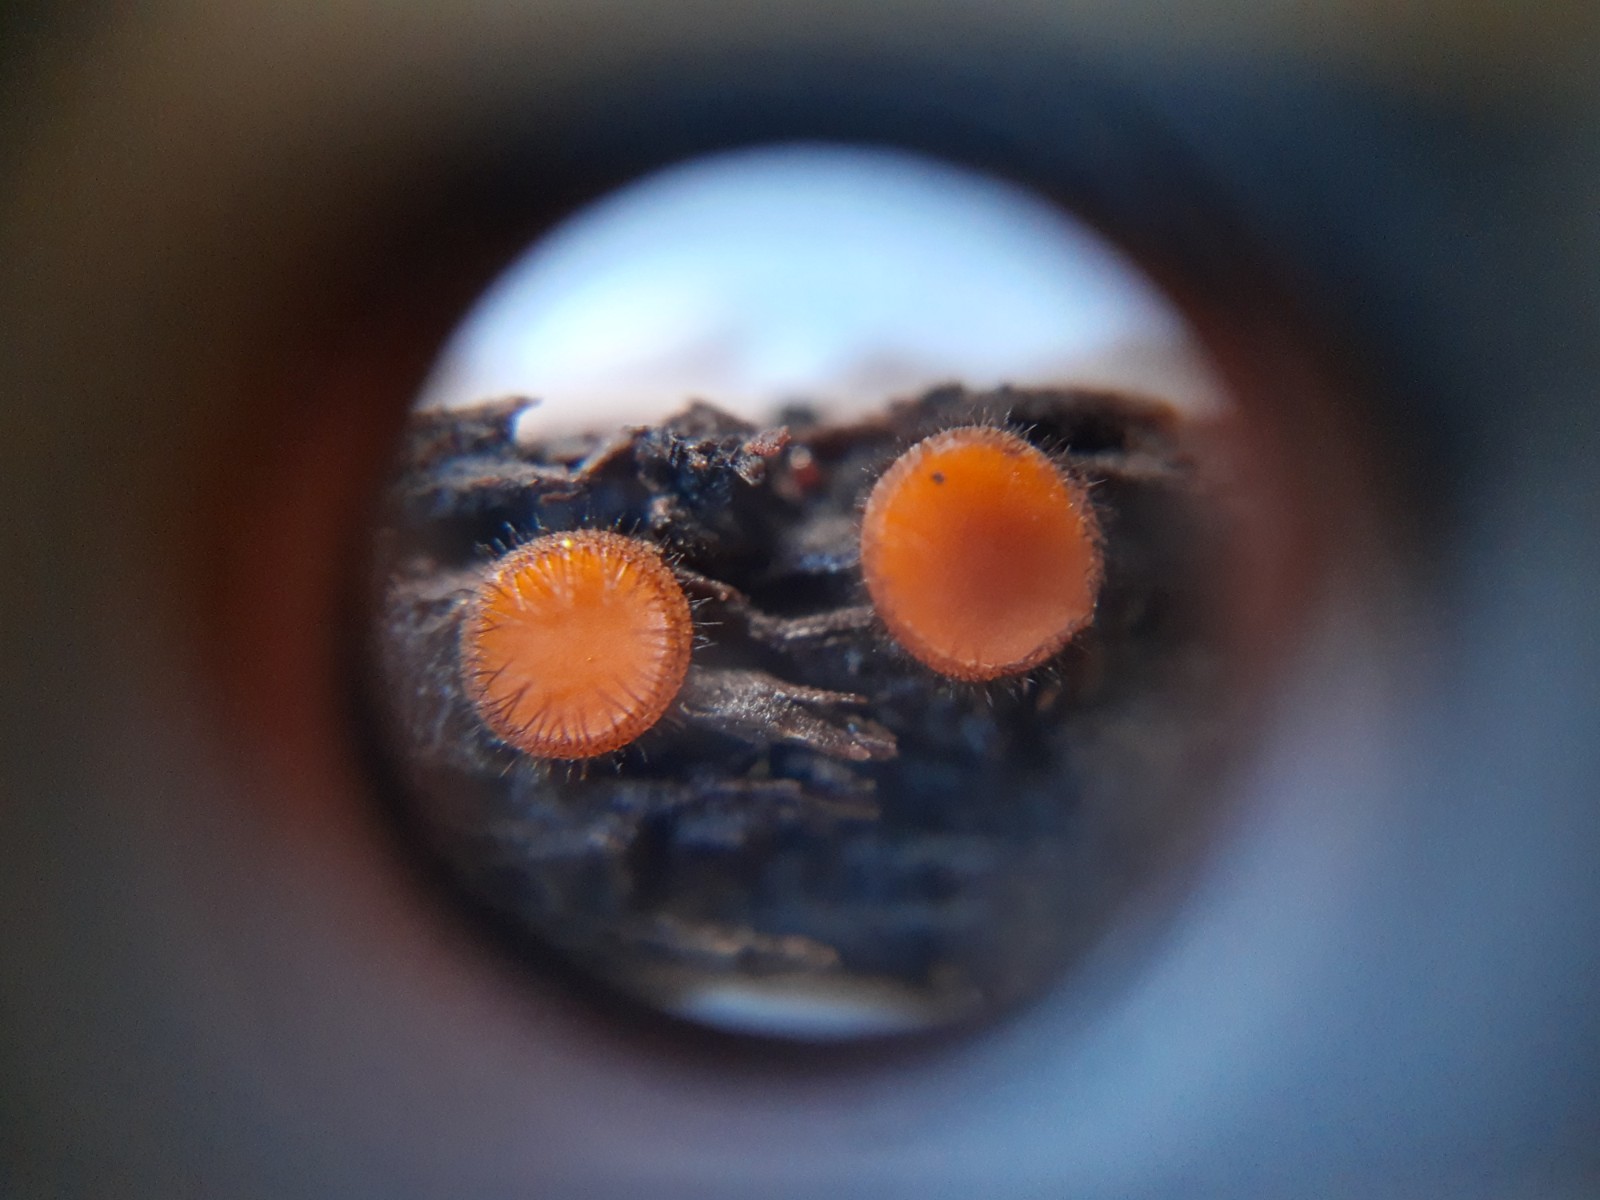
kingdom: Fungi
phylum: Ascomycota
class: Pezizomycetes
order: Pezizales
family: Pyronemataceae
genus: Scutellinia
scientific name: Scutellinia scutellata
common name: frynset skjoldbæger
